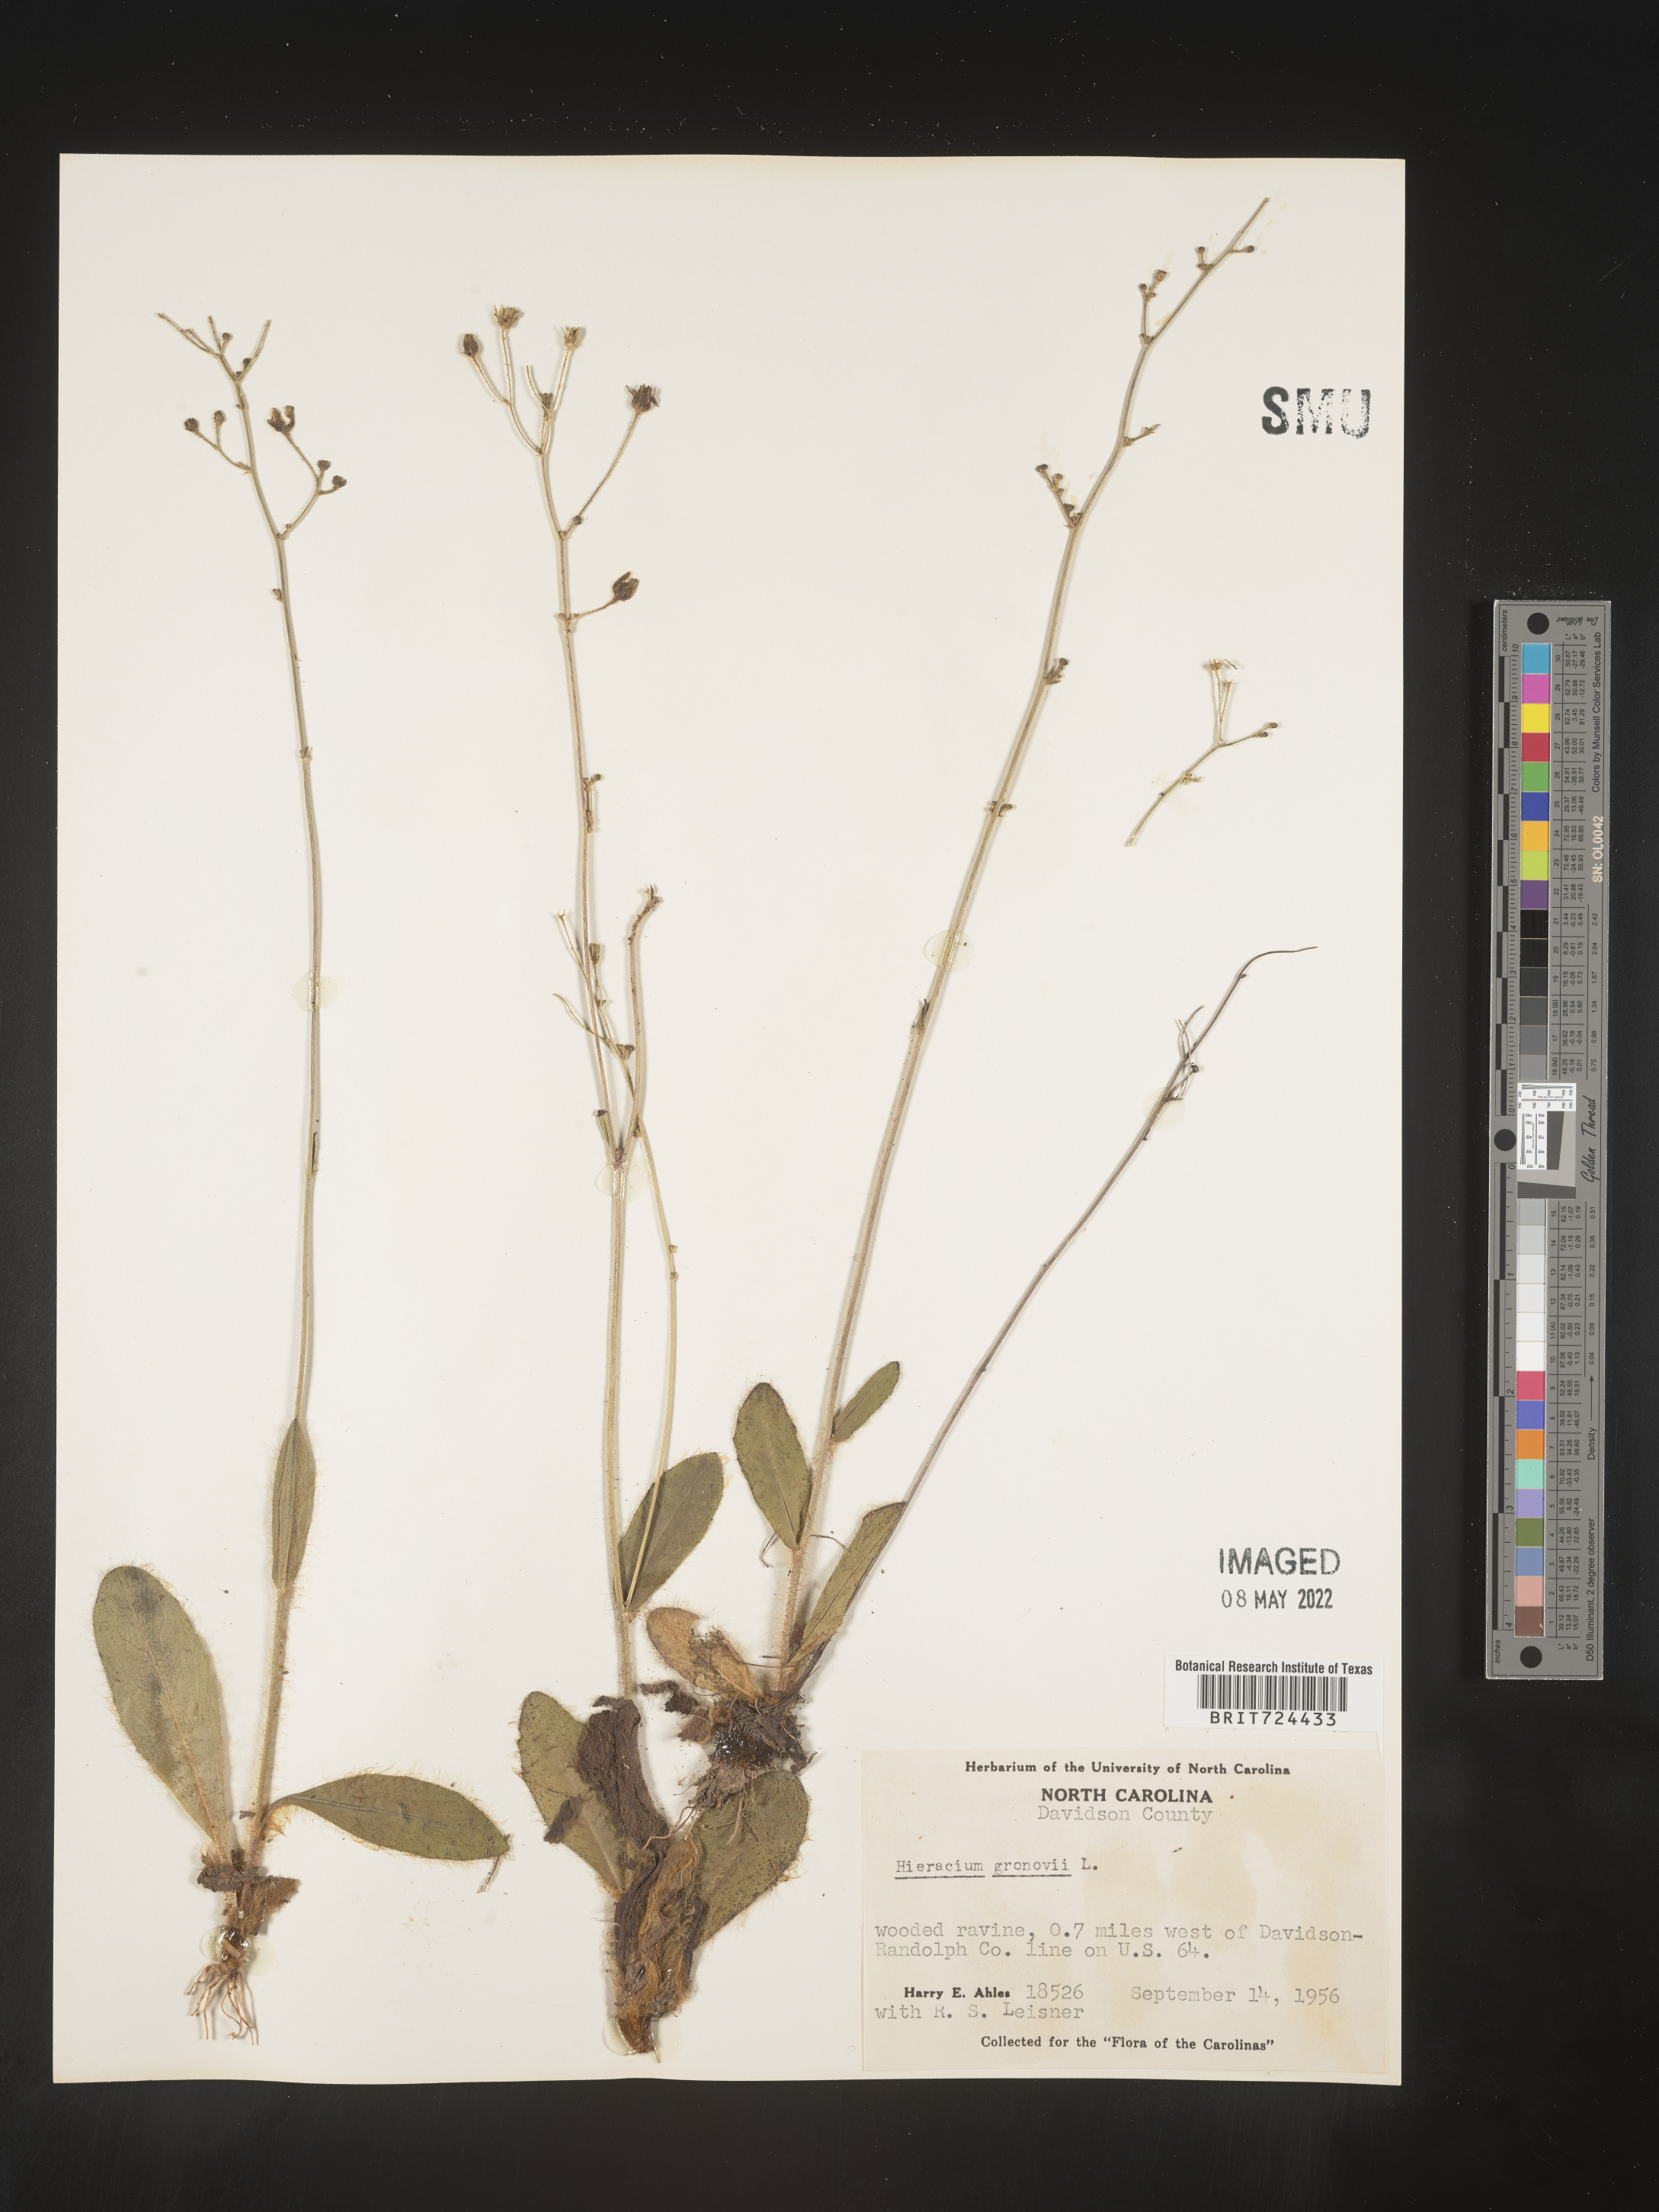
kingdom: Plantae
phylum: Tracheophyta
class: Magnoliopsida
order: Asterales
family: Asteraceae
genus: Hieracium
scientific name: Hieracium gronovii
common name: Beaked hawkweed
